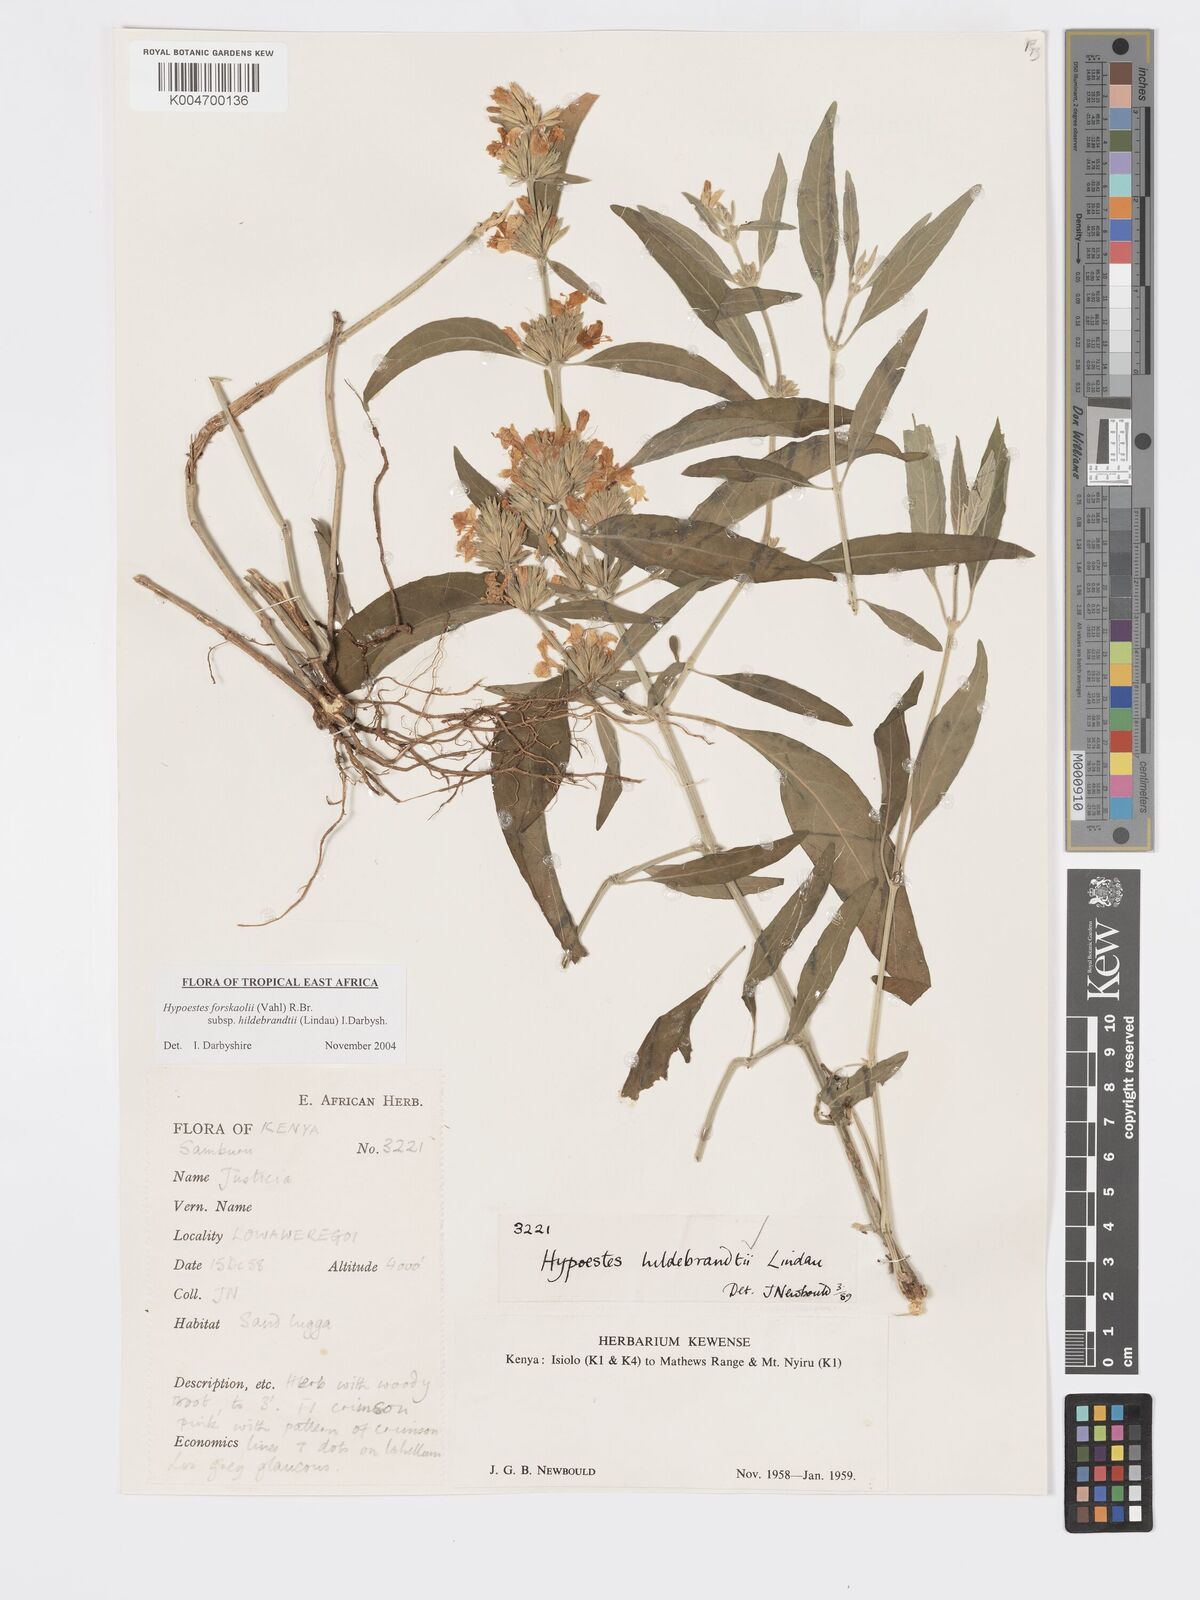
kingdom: Plantae
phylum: Tracheophyta
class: Magnoliopsida
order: Lamiales
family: Acanthaceae
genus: Hypoestes
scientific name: Hypoestes forskaolii
